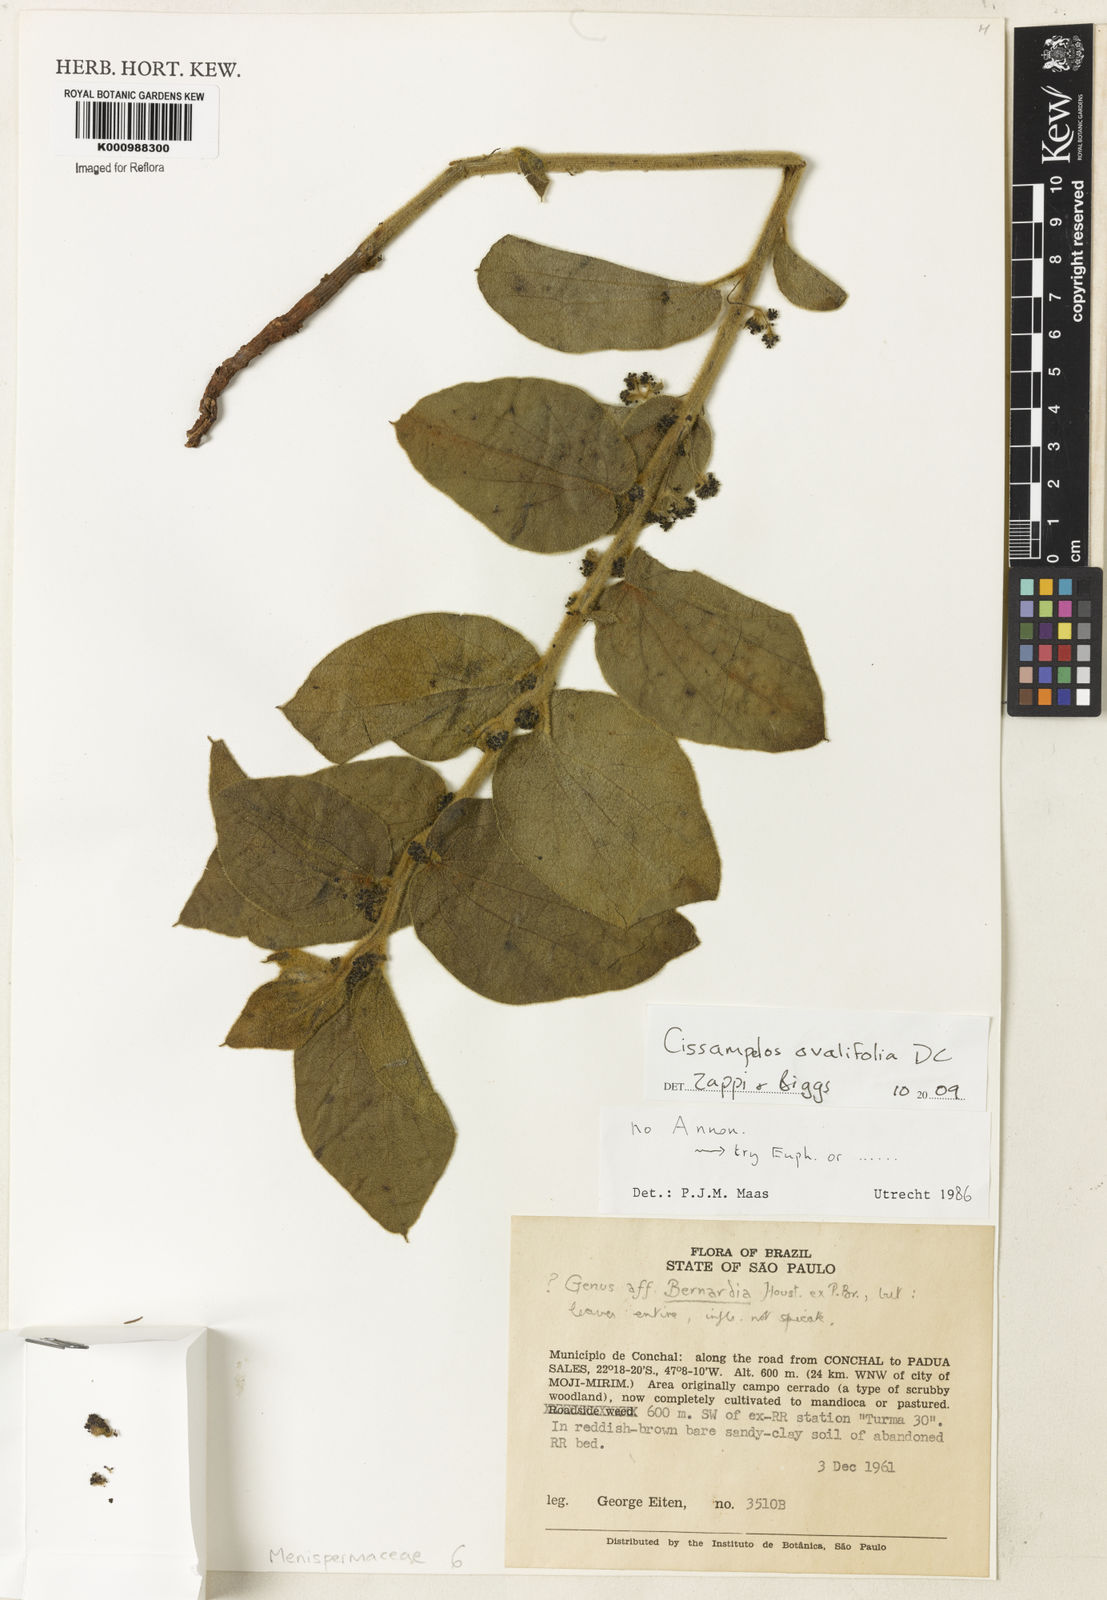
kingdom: Plantae
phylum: Tracheophyta
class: Magnoliopsida
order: Ranunculales
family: Menispermaceae
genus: Cissampelos
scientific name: Cissampelos ovalifolia
